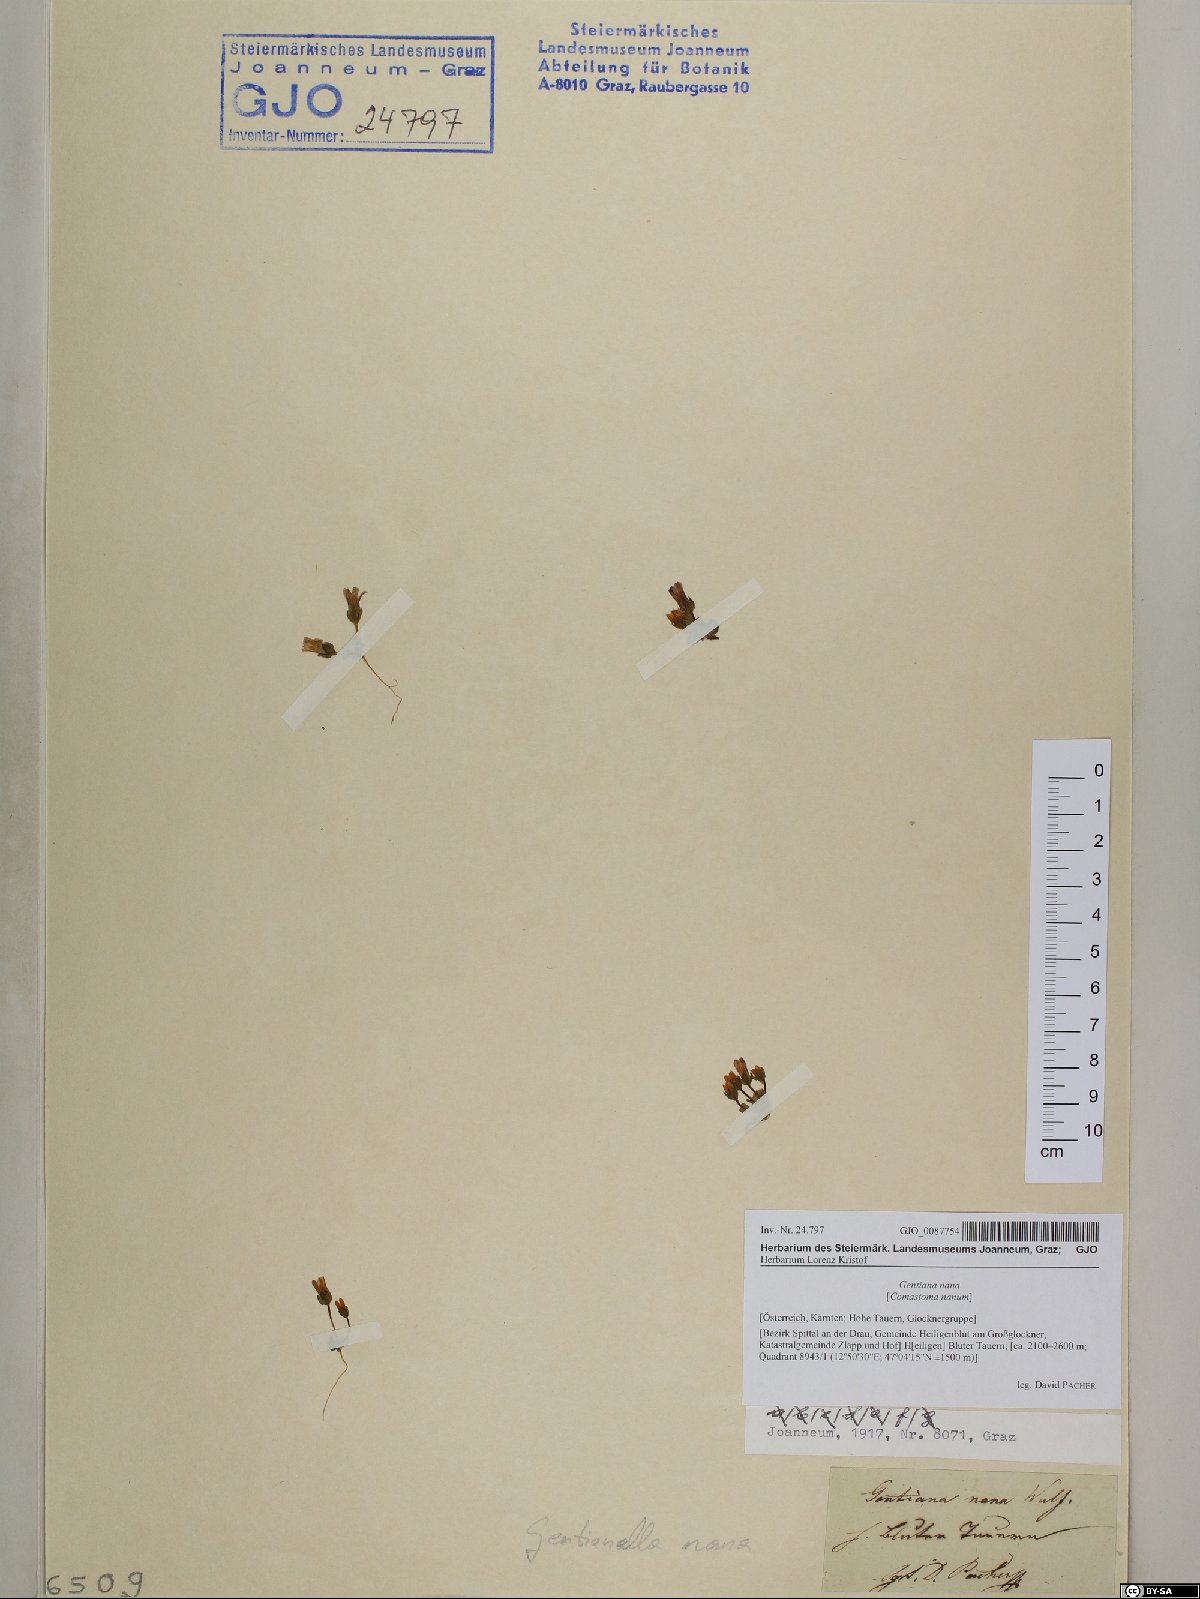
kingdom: Plantae
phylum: Tracheophyta
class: Magnoliopsida
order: Gentianales
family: Gentianaceae
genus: Comastoma
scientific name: Comastoma nanum
